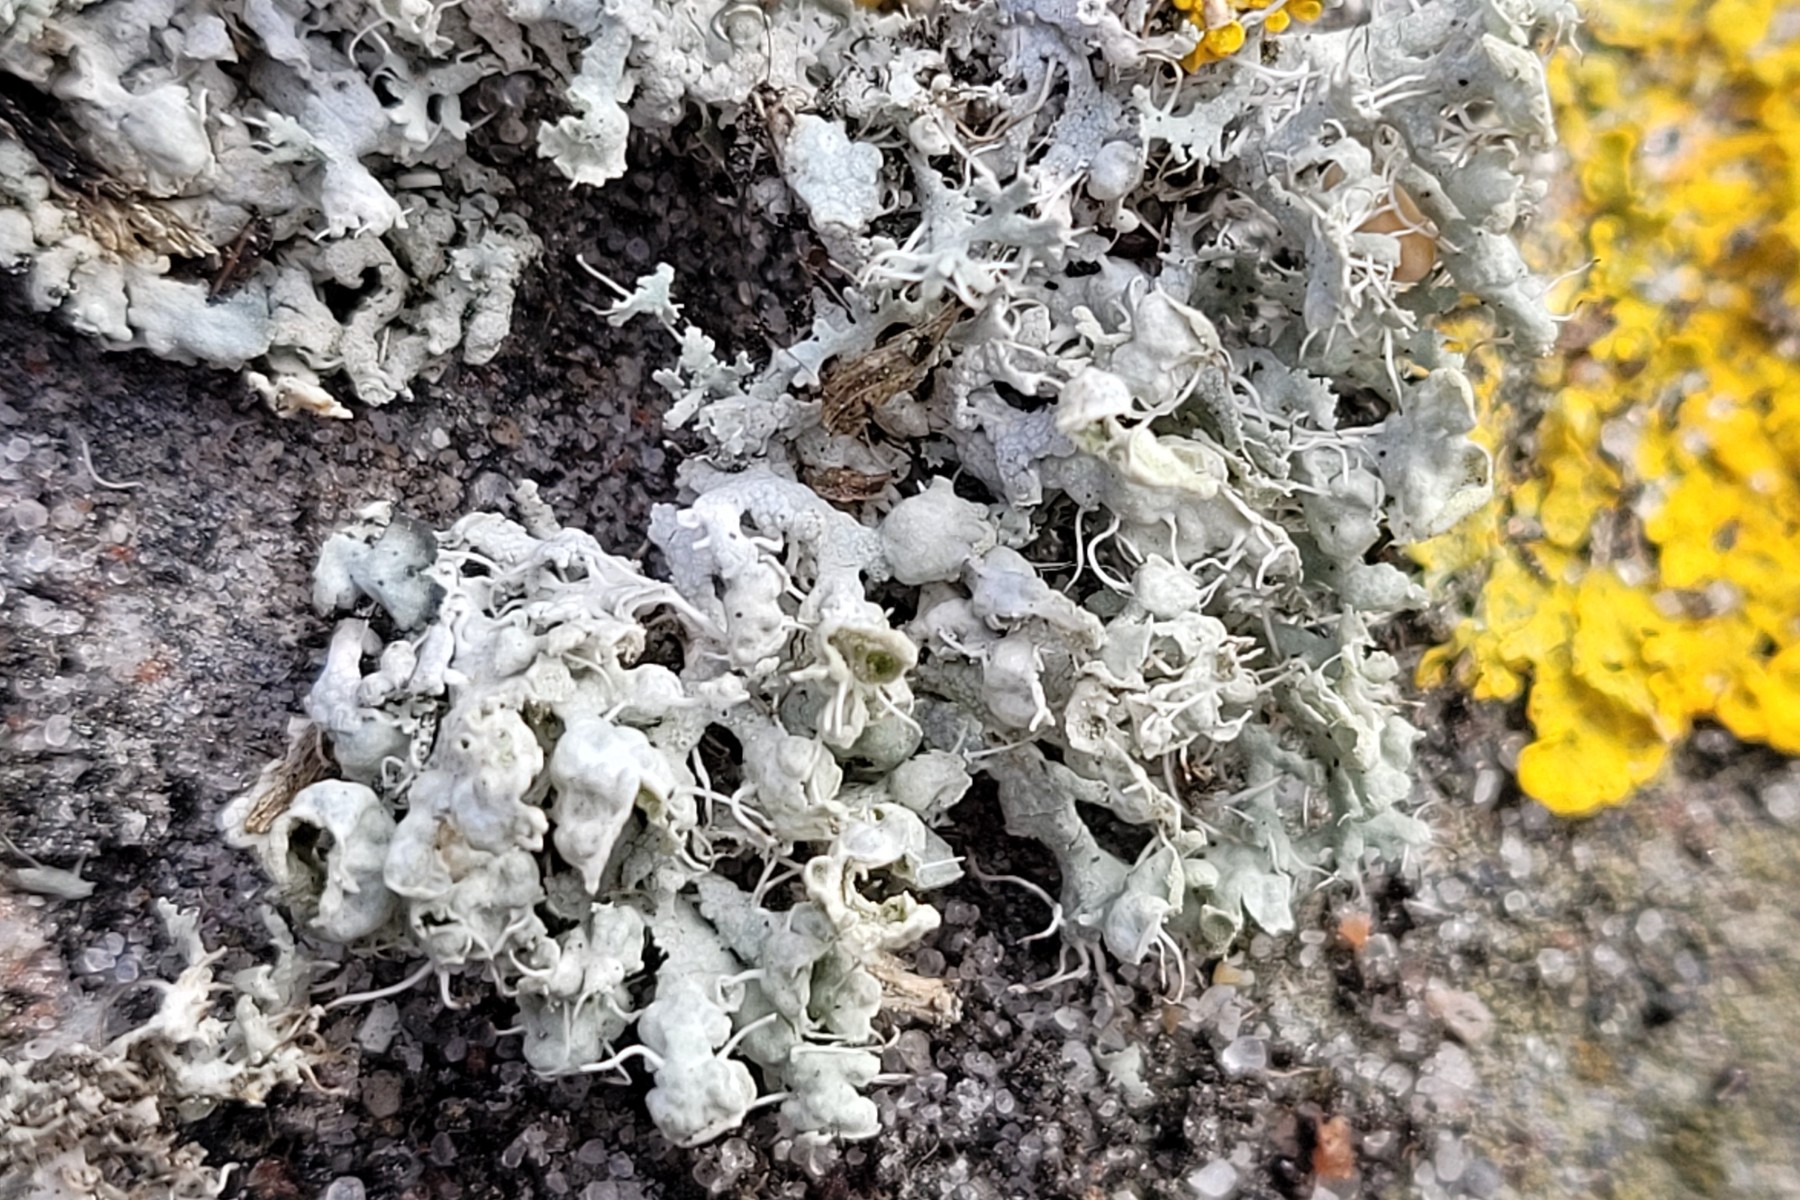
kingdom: Fungi
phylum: Ascomycota
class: Lecanoromycetes
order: Caliciales
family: Physciaceae
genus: Physcia
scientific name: Physcia adscendens
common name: hætte-rosetlav
